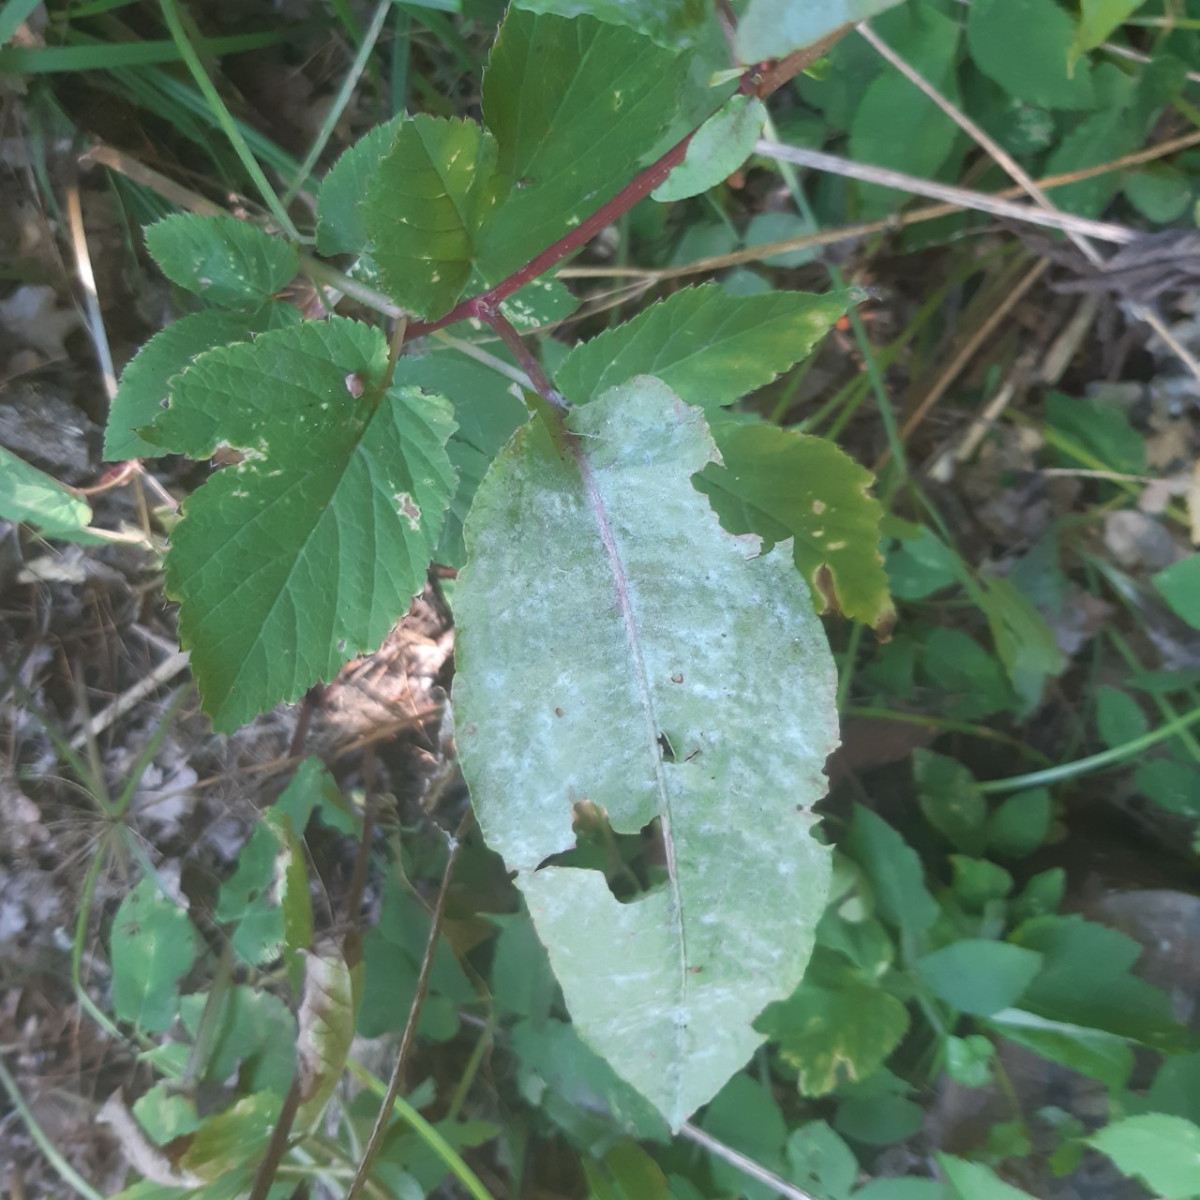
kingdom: Fungi
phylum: Ascomycota
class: Leotiomycetes
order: Helotiales
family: Erysiphaceae
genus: Erysiphe
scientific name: Erysiphe polygoni
